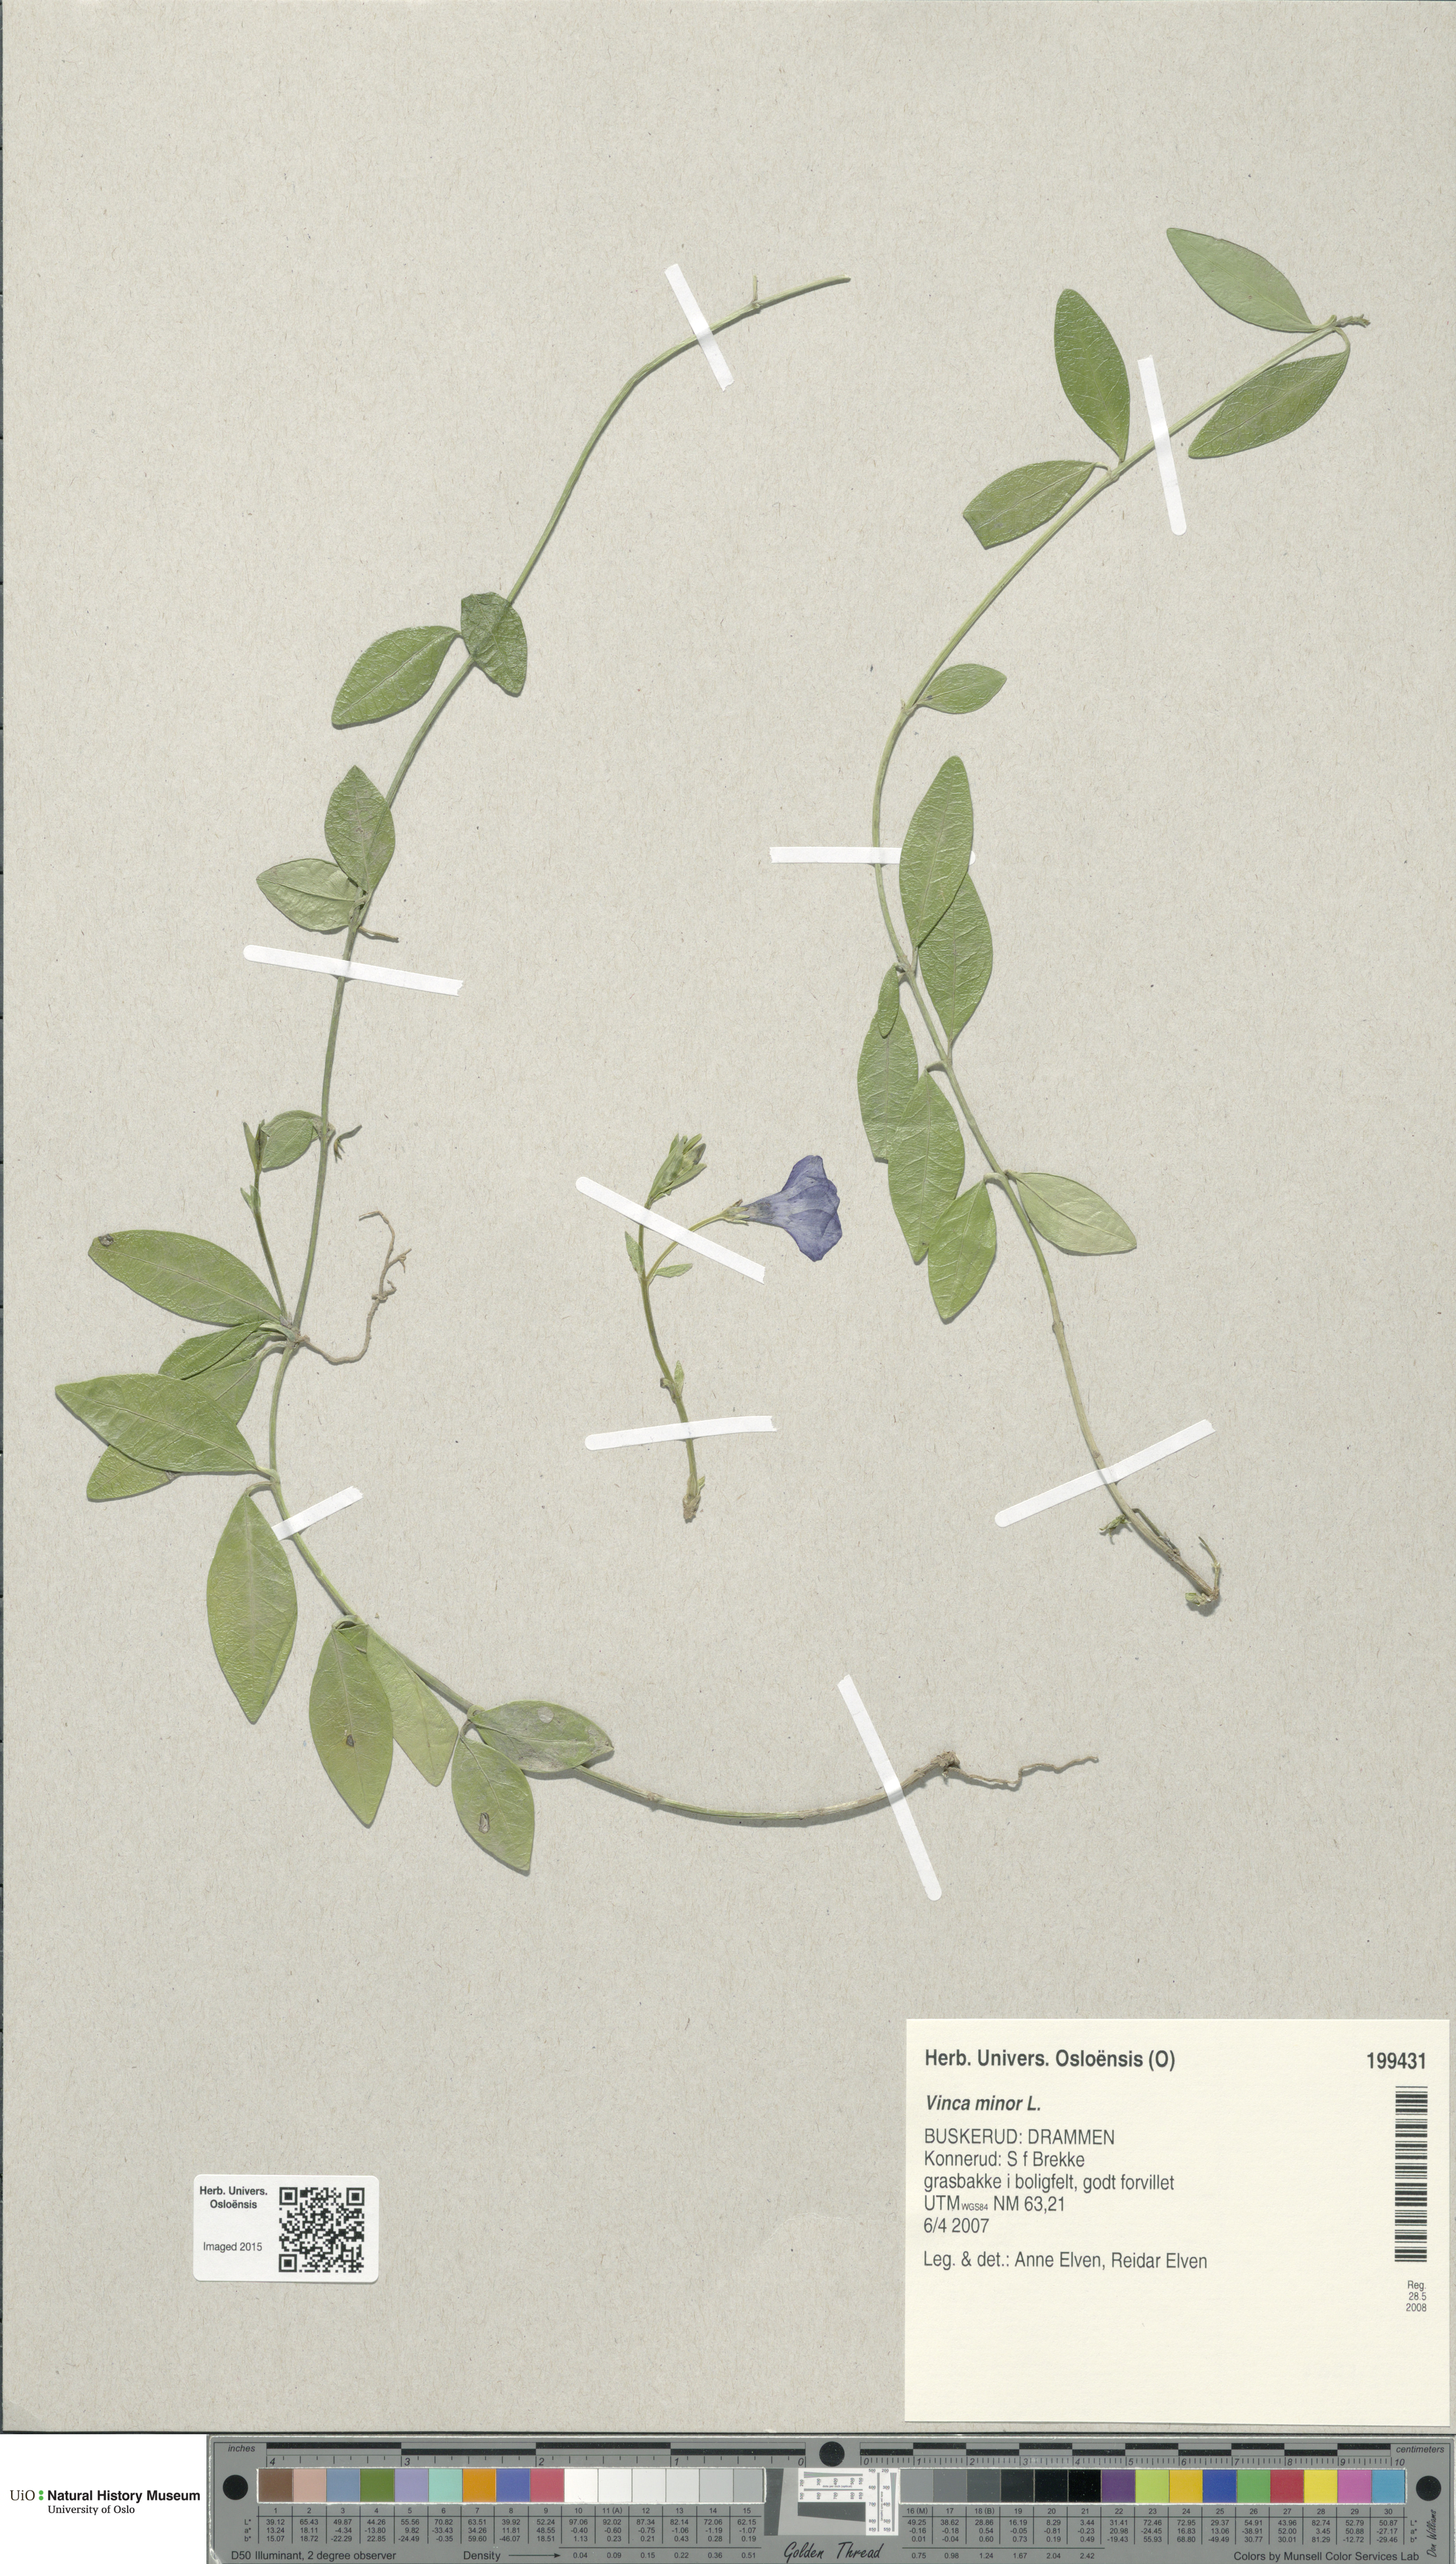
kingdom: Plantae
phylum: Tracheophyta
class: Magnoliopsida
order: Gentianales
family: Apocynaceae
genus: Vinca
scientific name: Vinca minor
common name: Lesser periwinkle
